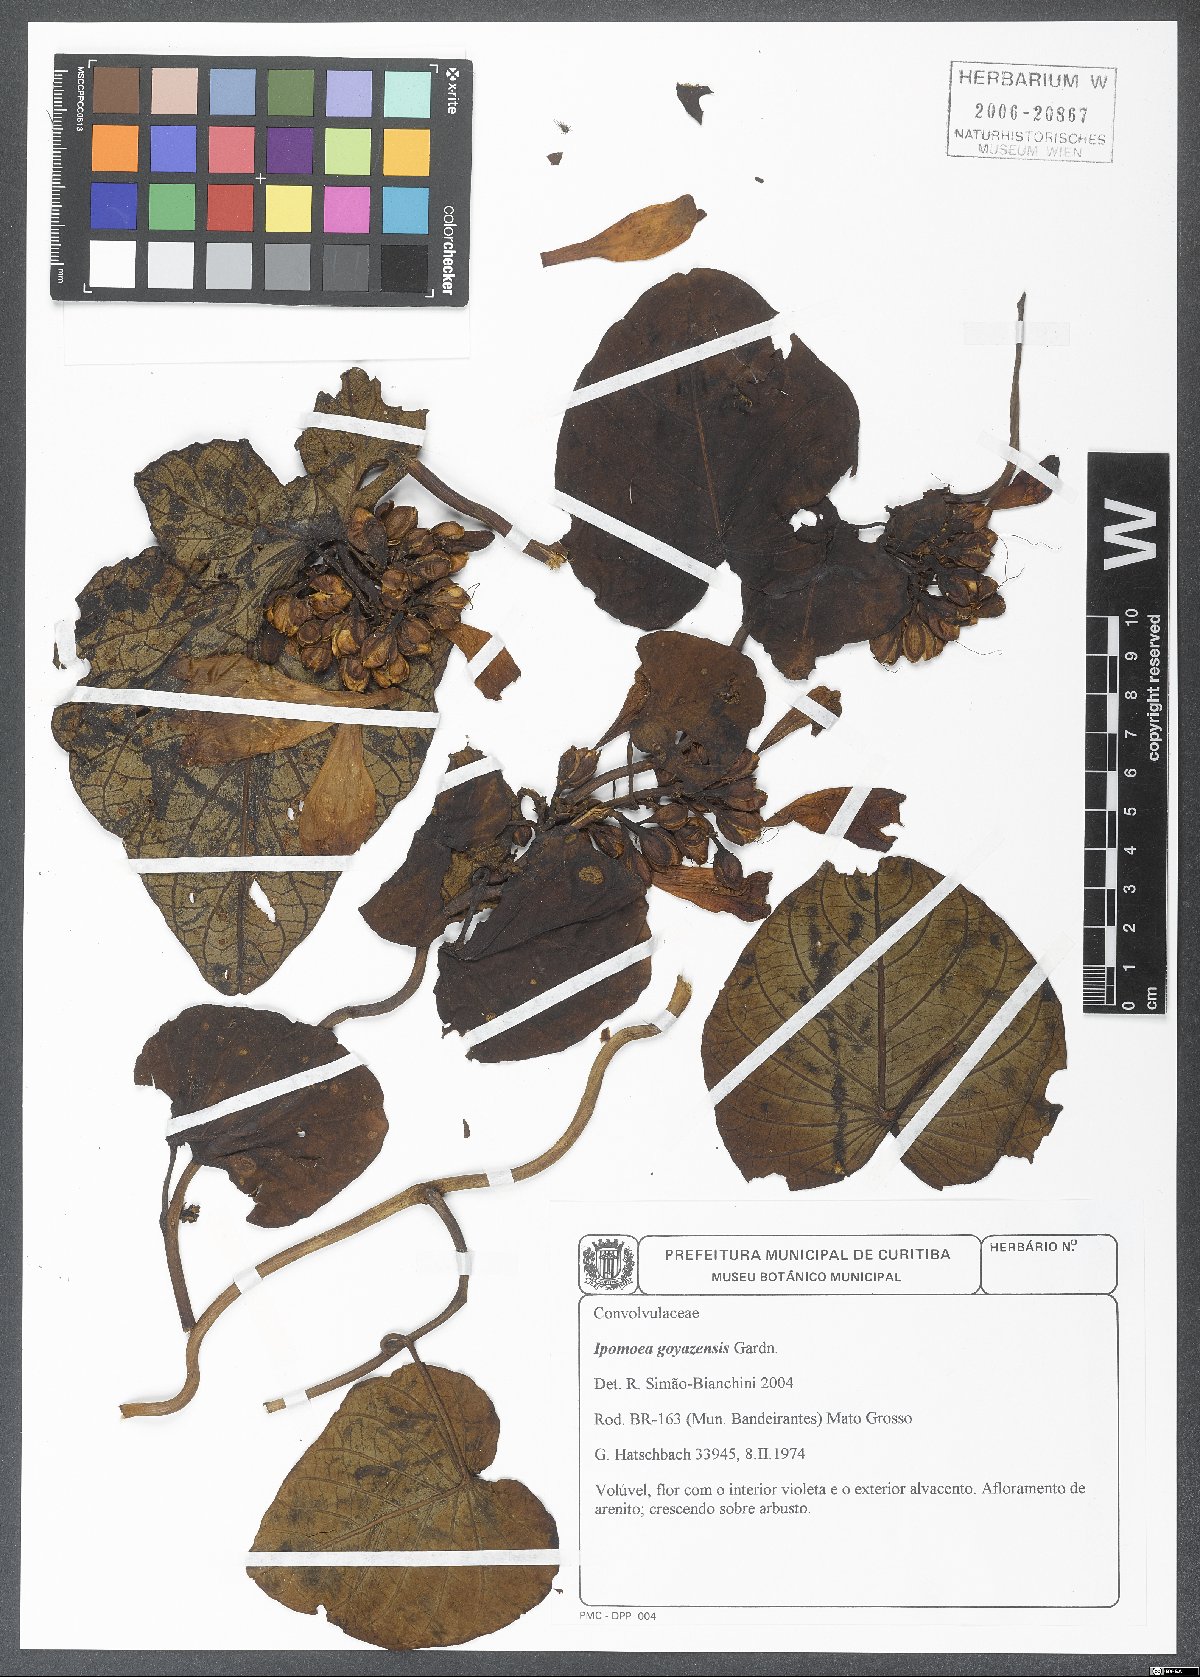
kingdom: Plantae
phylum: Tracheophyta
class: Magnoliopsida
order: Solanales
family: Convolvulaceae
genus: Ipomoea
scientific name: Ipomoea goyazensis
